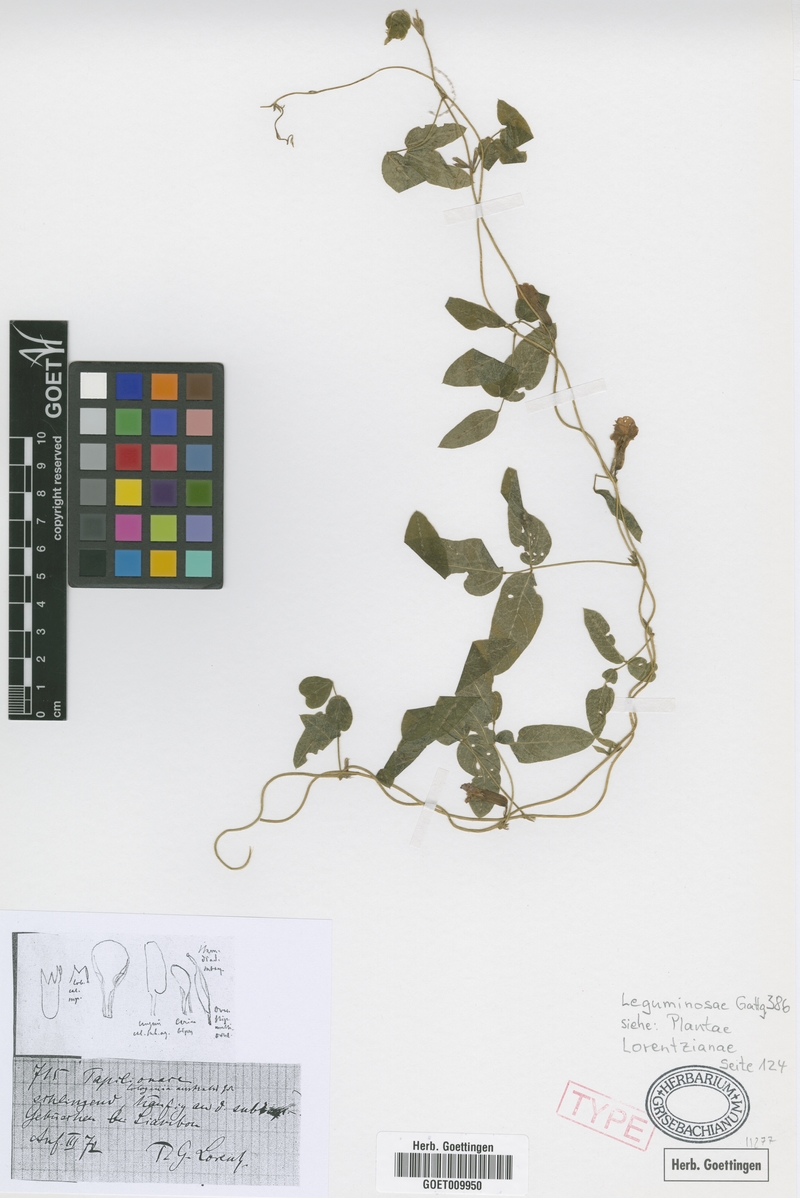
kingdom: Plantae
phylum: Tracheophyta
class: Magnoliopsida
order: Fabales
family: Fabaceae
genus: Cologania
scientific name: Cologania broussonetii
